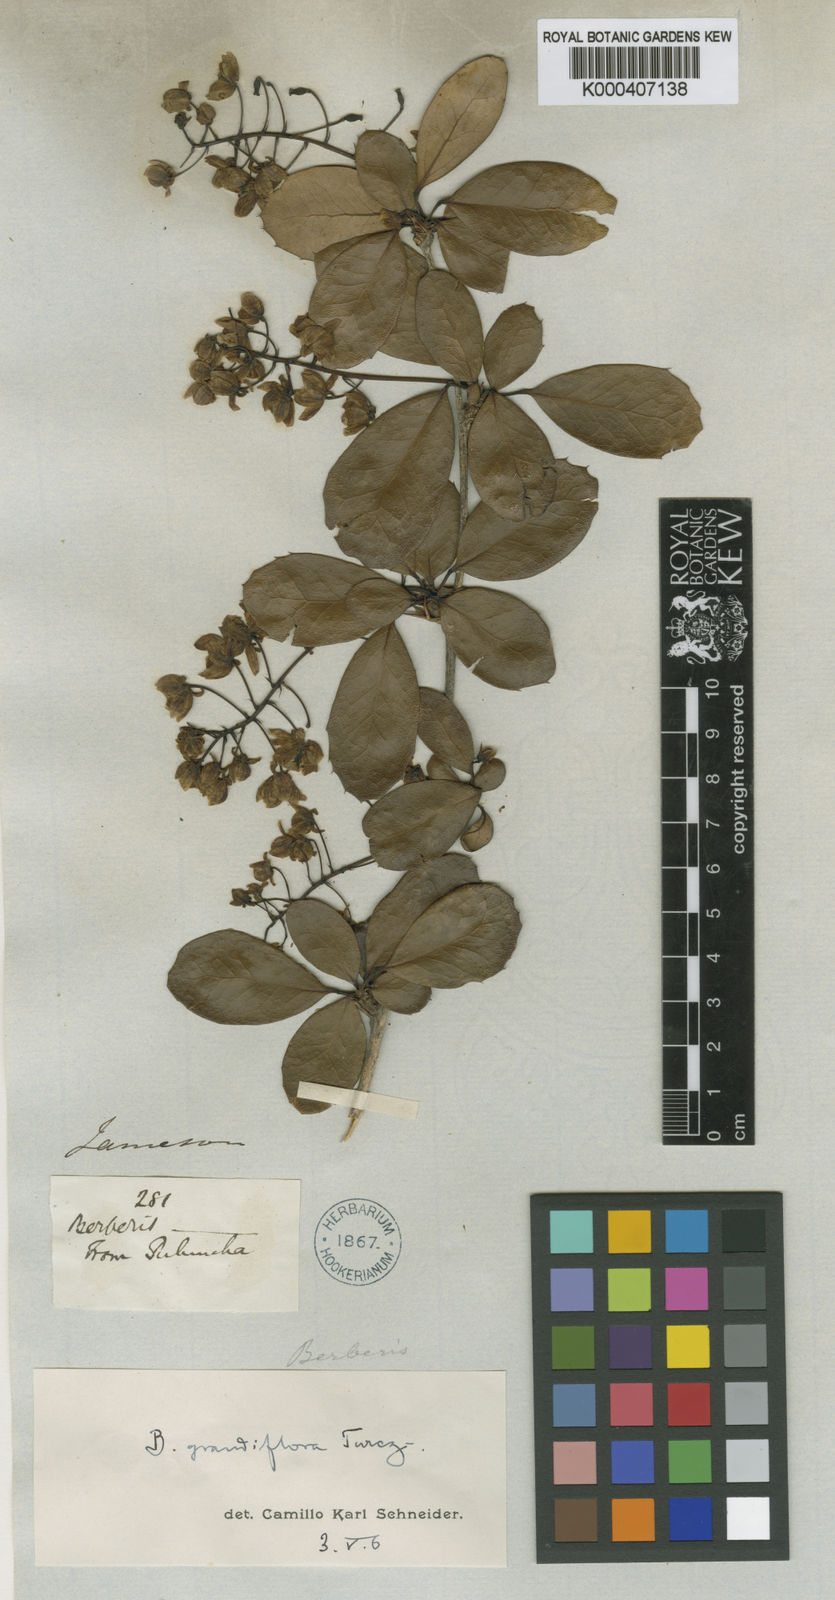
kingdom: Plantae
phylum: Tracheophyta
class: Magnoliopsida
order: Ranunculales
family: Berberidaceae
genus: Berberis
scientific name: Berberis grandiflora
